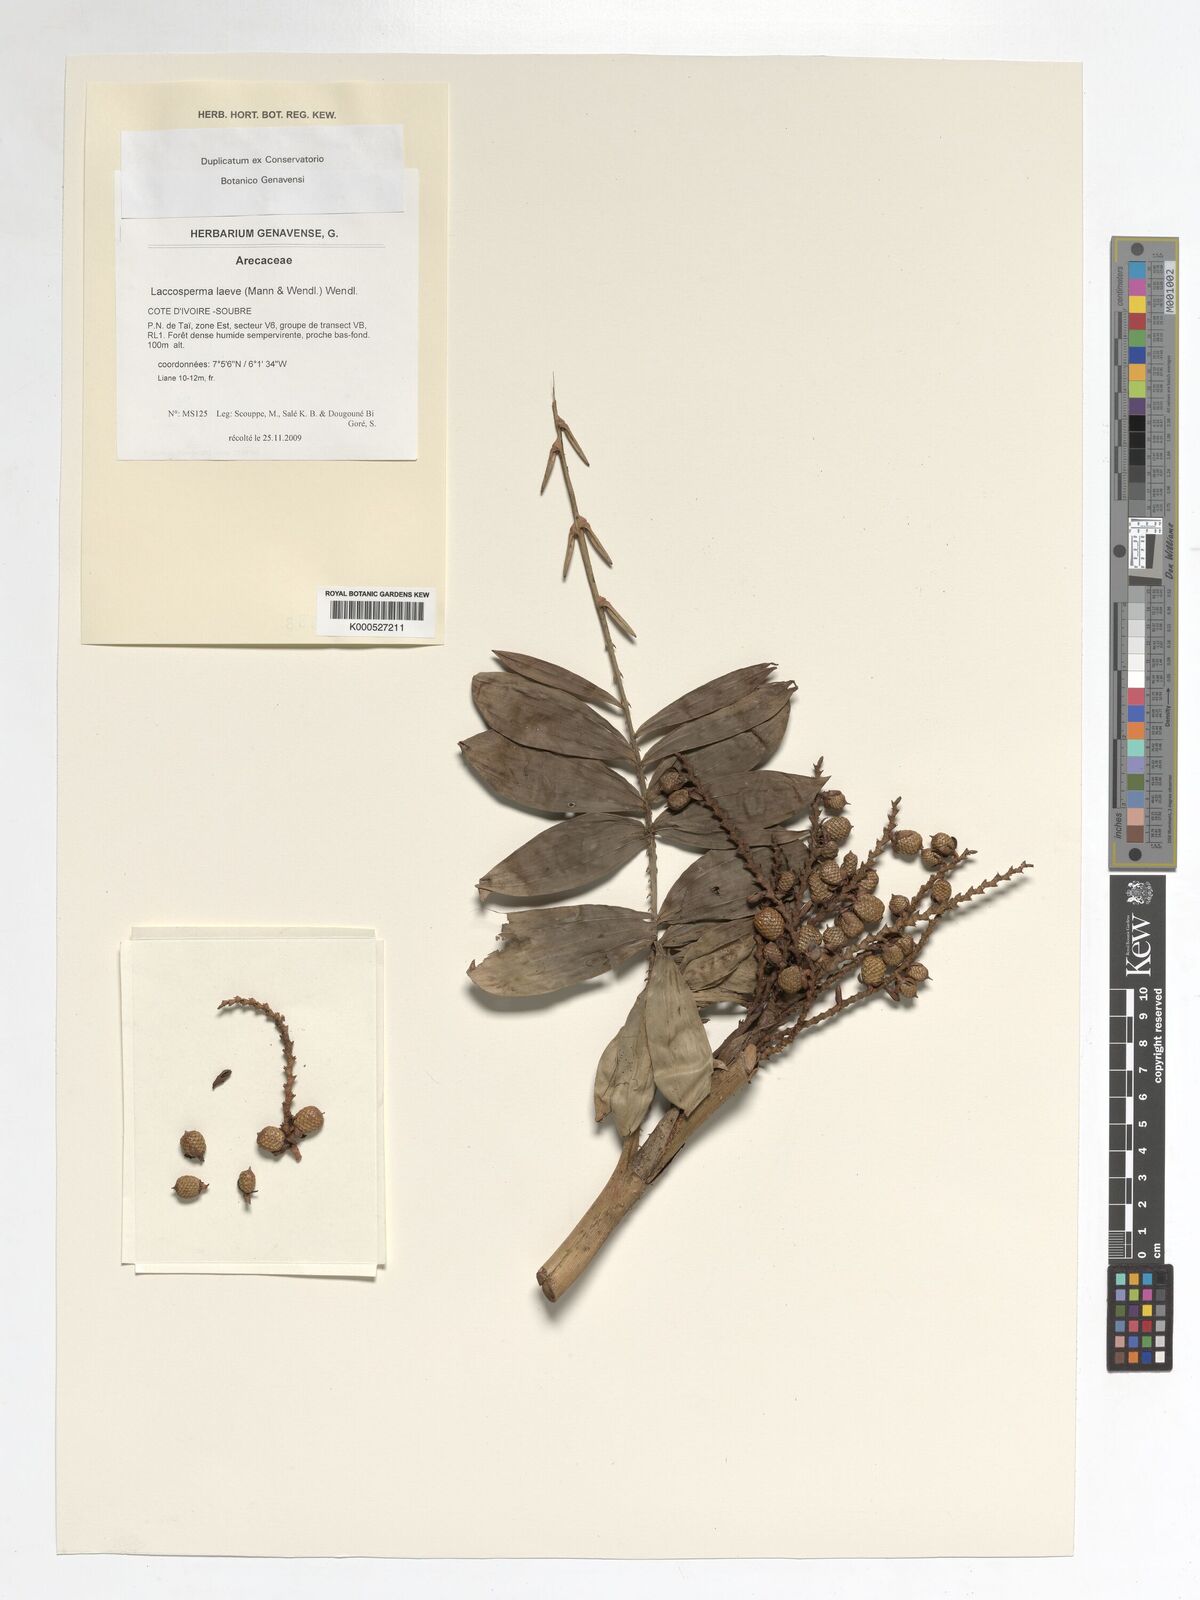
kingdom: Plantae
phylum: Tracheophyta
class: Liliopsida
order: Arecales
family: Arecaceae
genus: Laccosperma
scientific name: Laccosperma laeve
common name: Rattan
